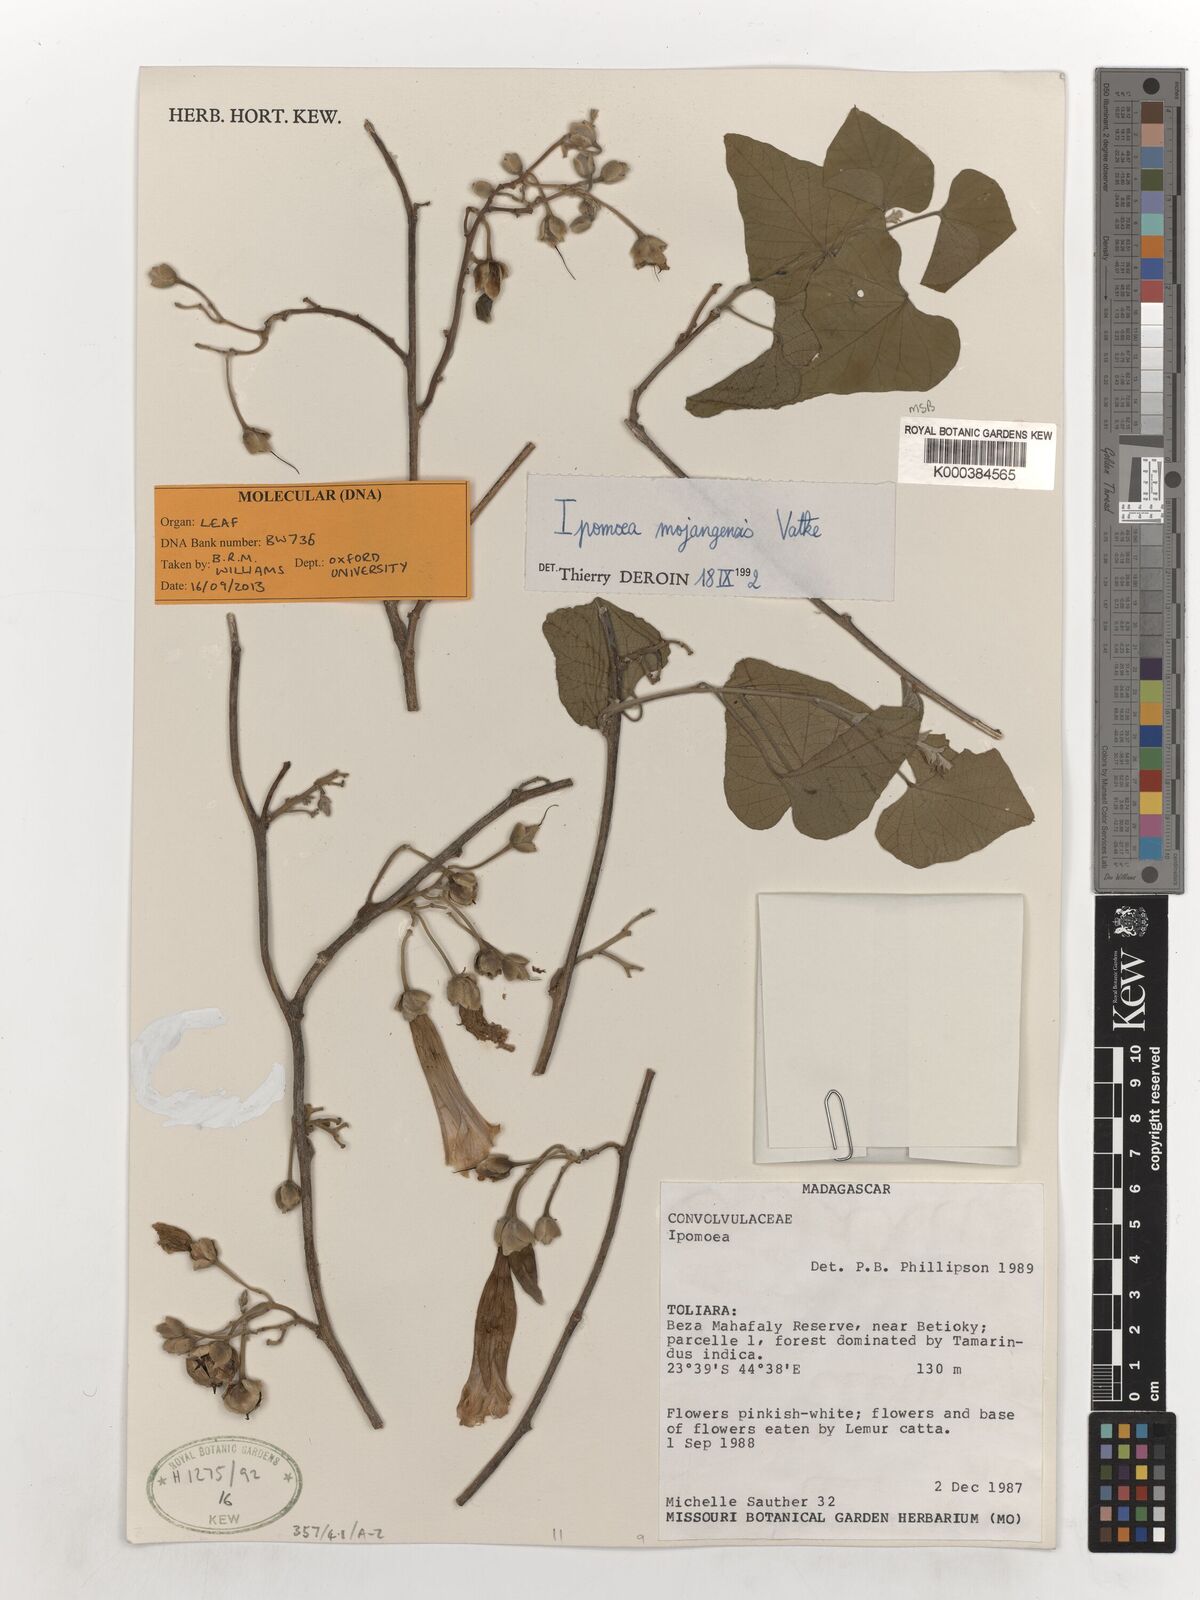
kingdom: Plantae
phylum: Tracheophyta
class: Magnoliopsida
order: Solanales
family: Convolvulaceae
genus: Stictocardia
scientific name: Stictocardia mojangensis
